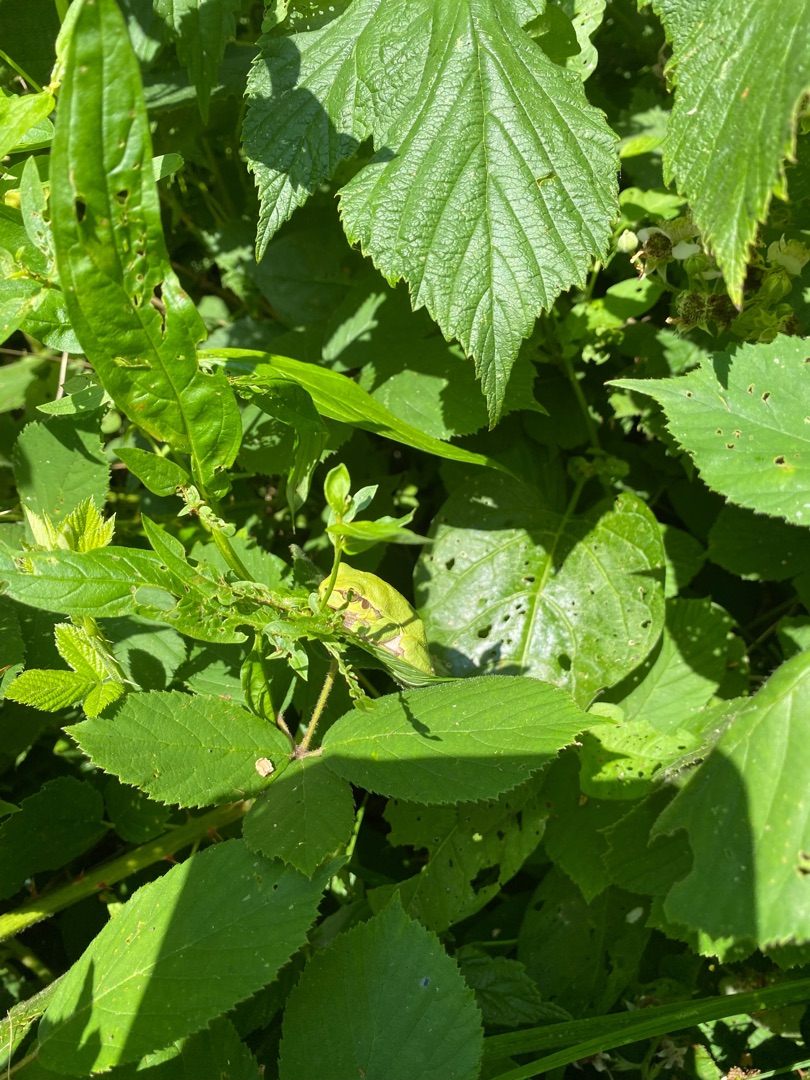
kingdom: Animalia
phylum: Chordata
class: Amphibia
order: Anura
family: Hylidae
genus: Hyla
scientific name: Hyla arborea
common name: Løvfrø
